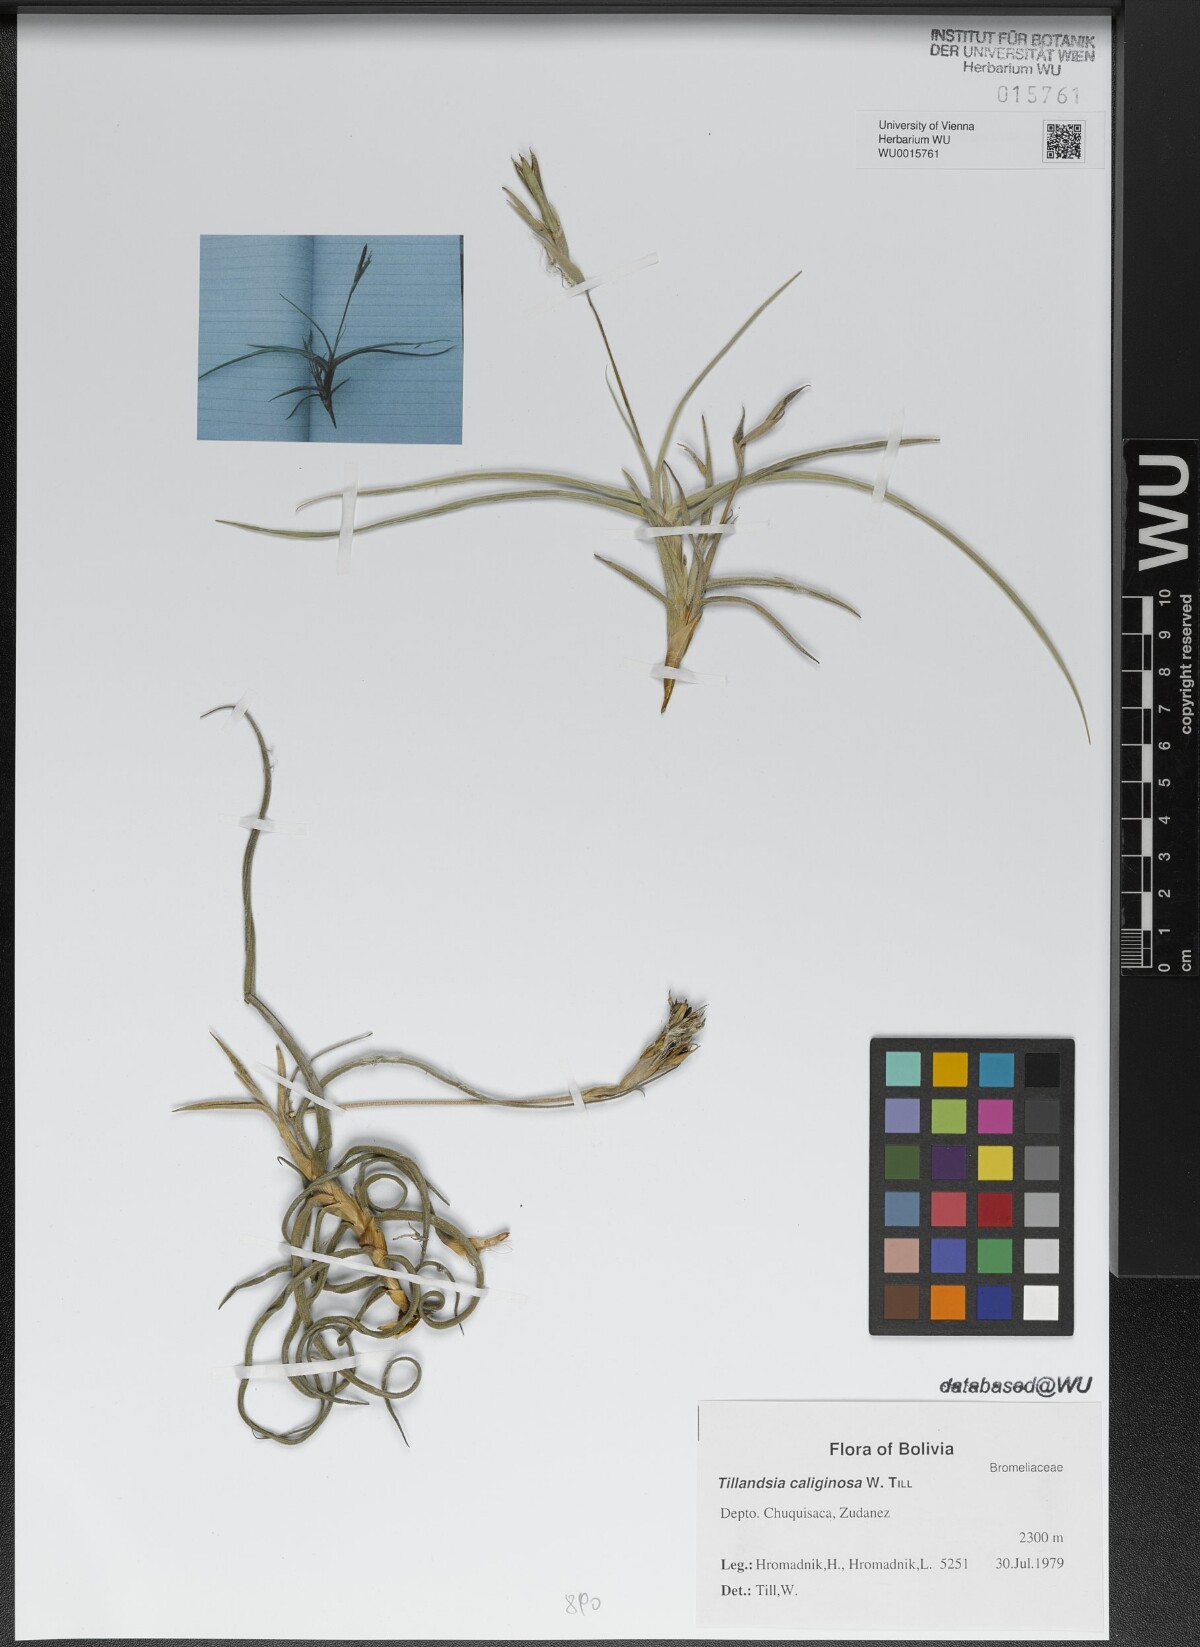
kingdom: Plantae
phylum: Tracheophyta
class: Liliopsida
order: Poales
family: Bromeliaceae
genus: Tillandsia
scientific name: Tillandsia caliginosa
